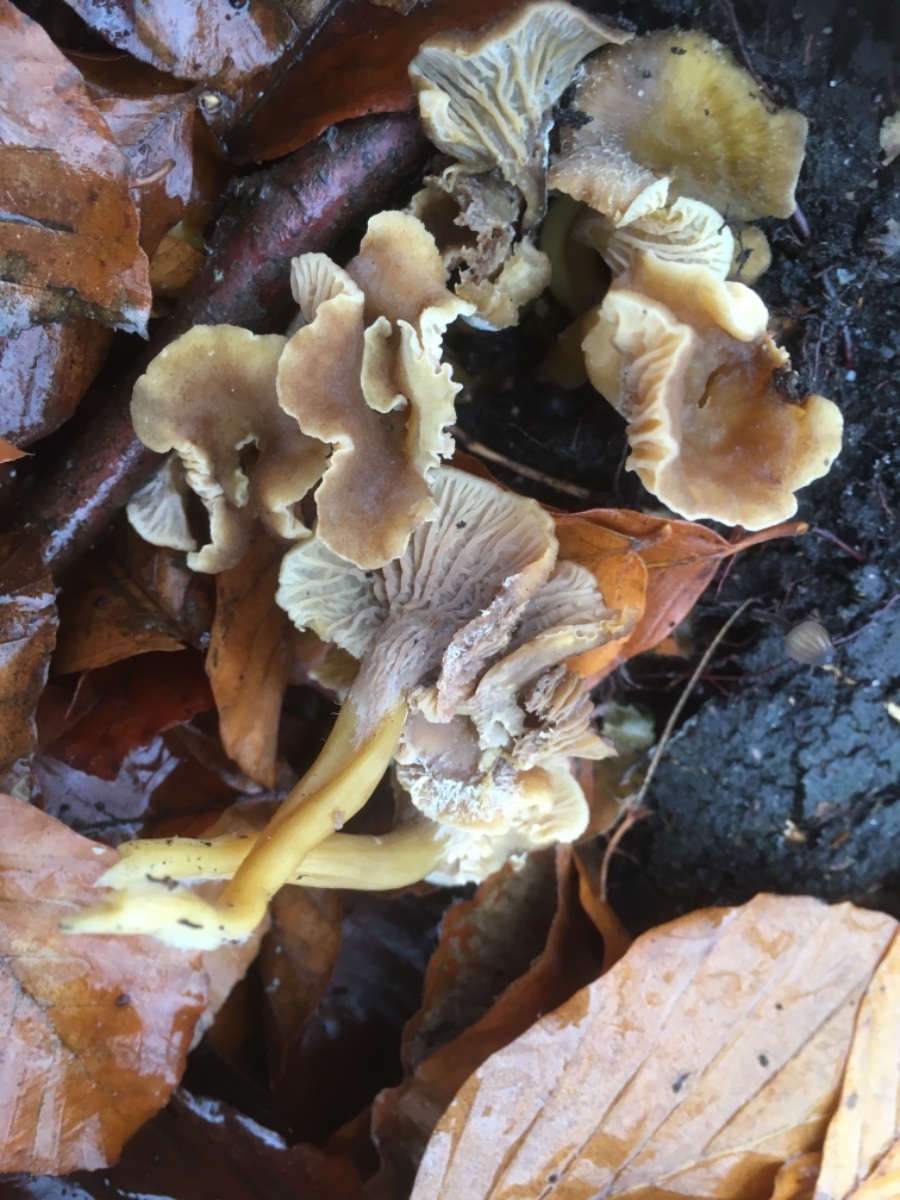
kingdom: Fungi
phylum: Basidiomycota
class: Agaricomycetes
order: Cantharellales
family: Hydnaceae
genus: Craterellus
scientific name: Craterellus tubaeformis
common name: tragt-kantarel
